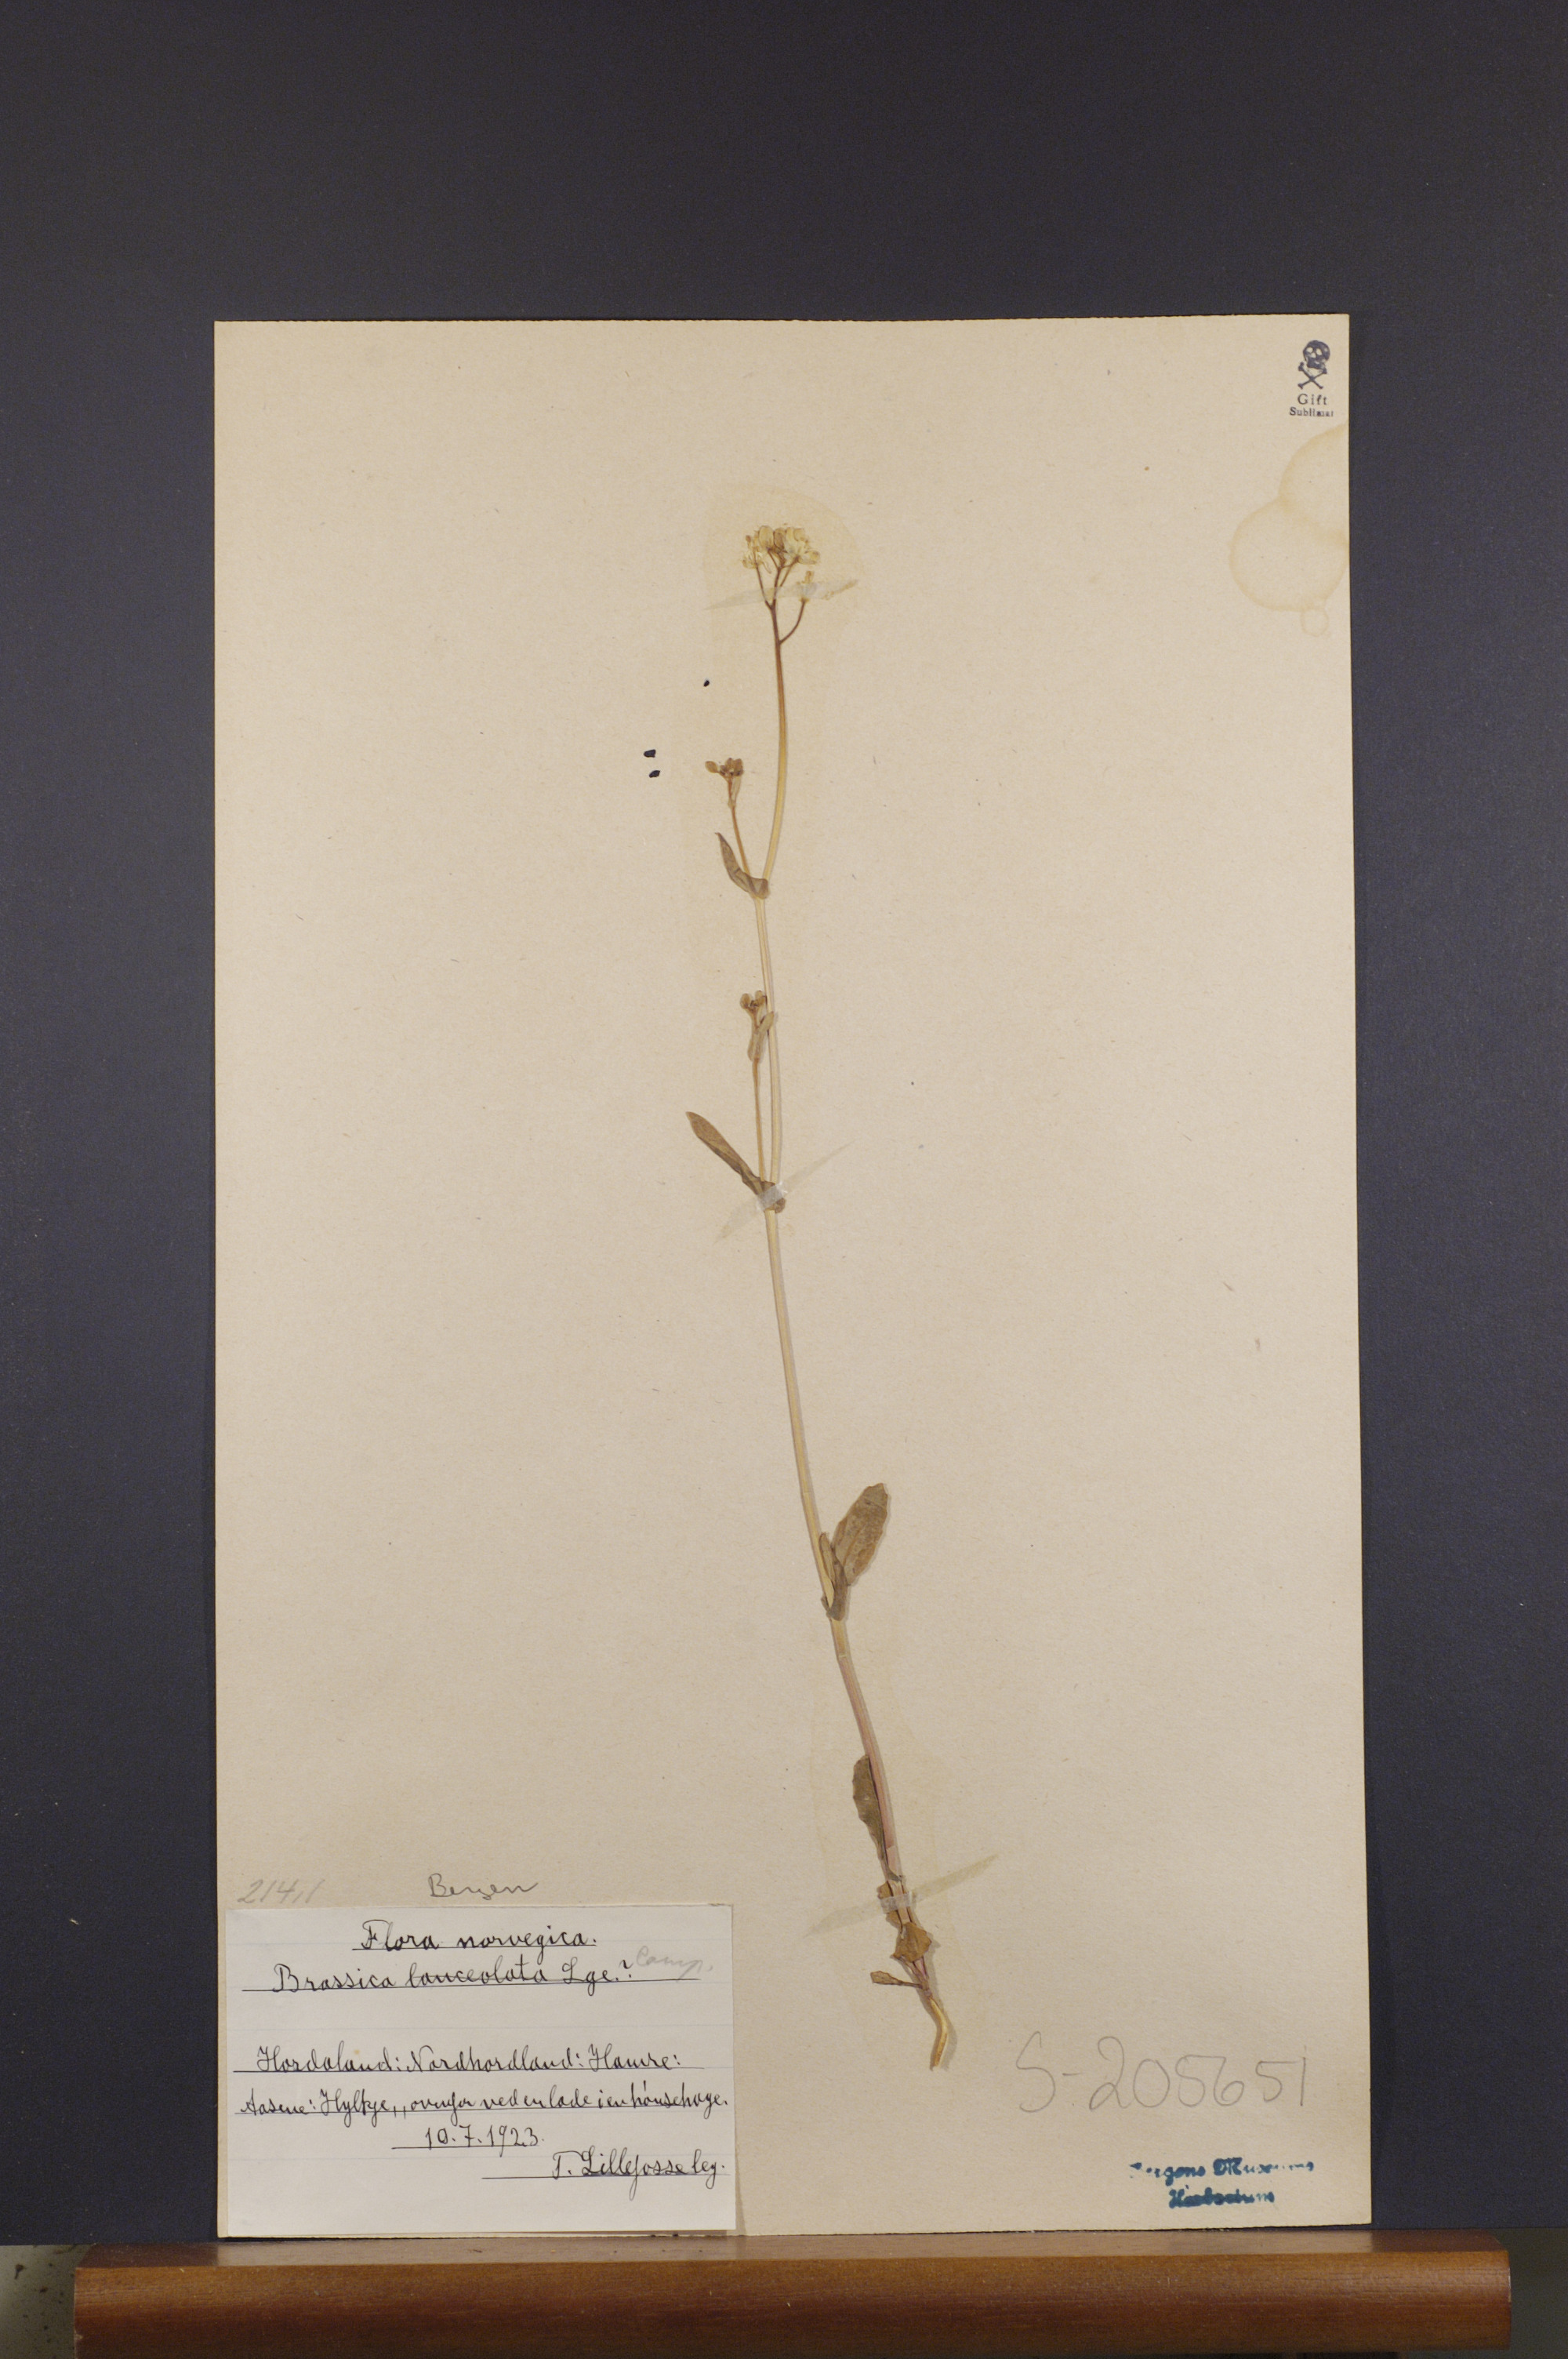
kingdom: Plantae
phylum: Tracheophyta
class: Magnoliopsida
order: Brassicales
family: Brassicaceae
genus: Brassica
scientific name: Brassica rapa
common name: Field mustard
